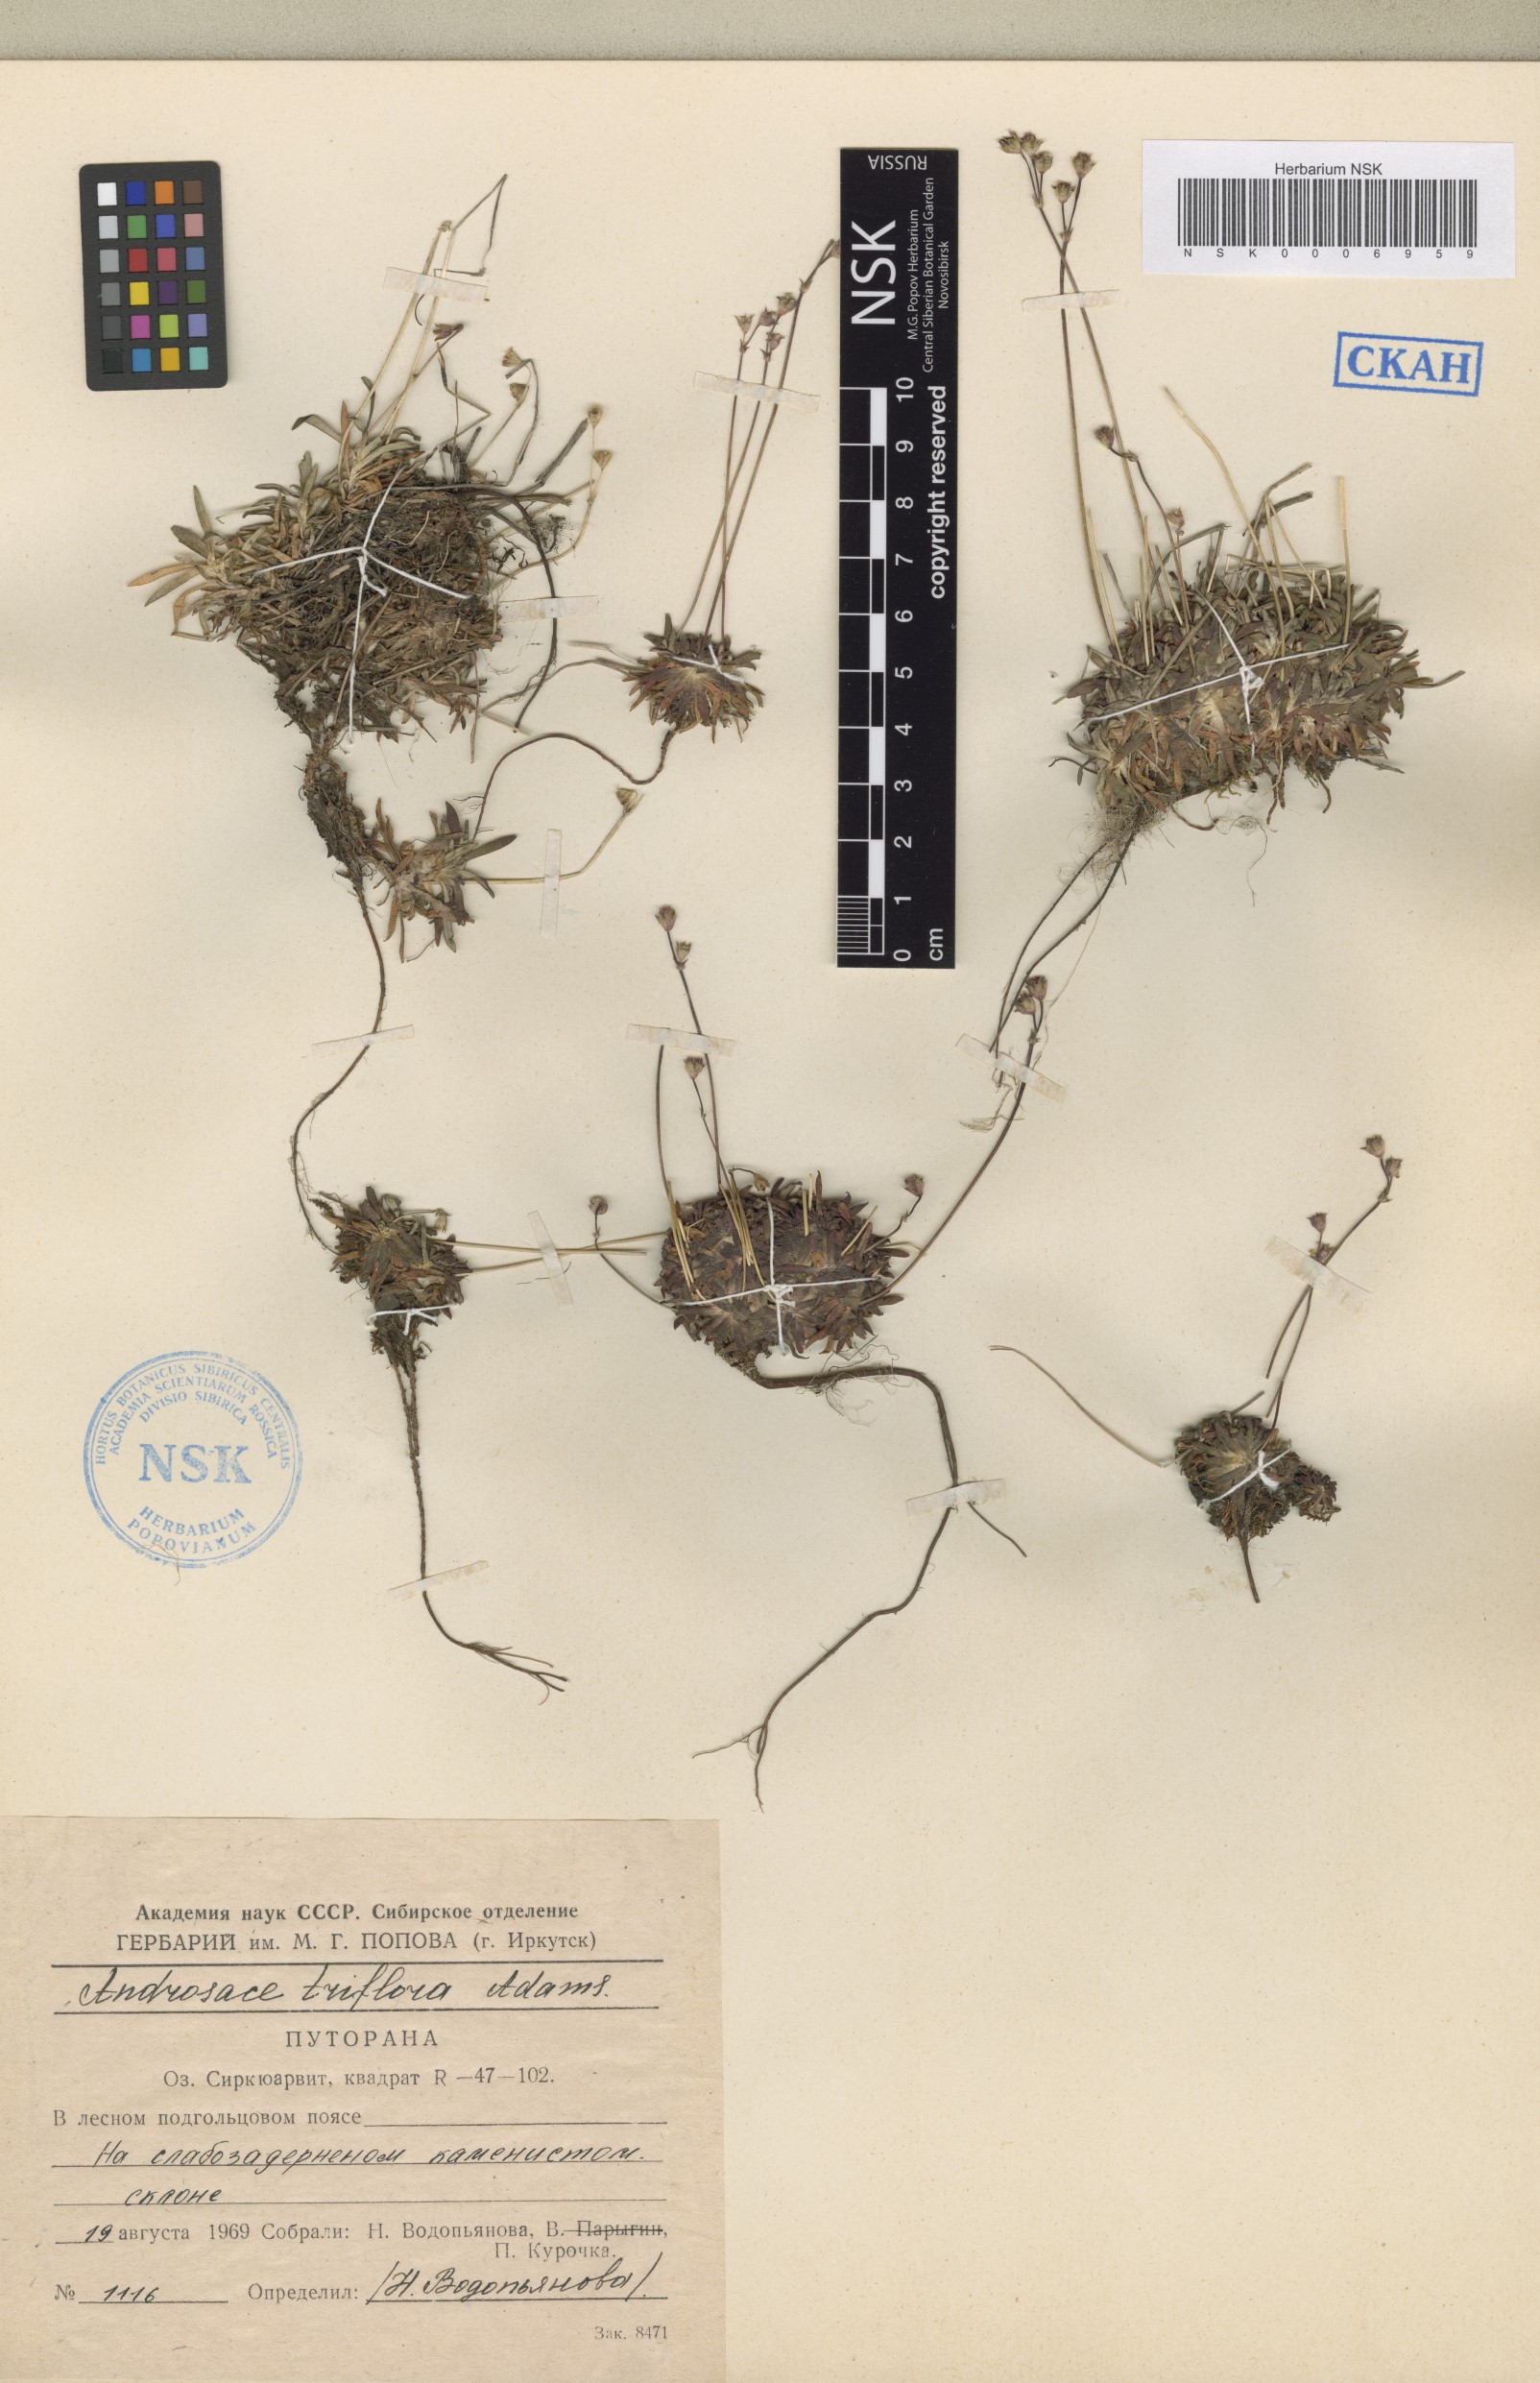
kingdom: Plantae
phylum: Tracheophyta
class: Magnoliopsida
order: Ericales
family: Primulaceae
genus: Androsace
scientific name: Androsace triflora
